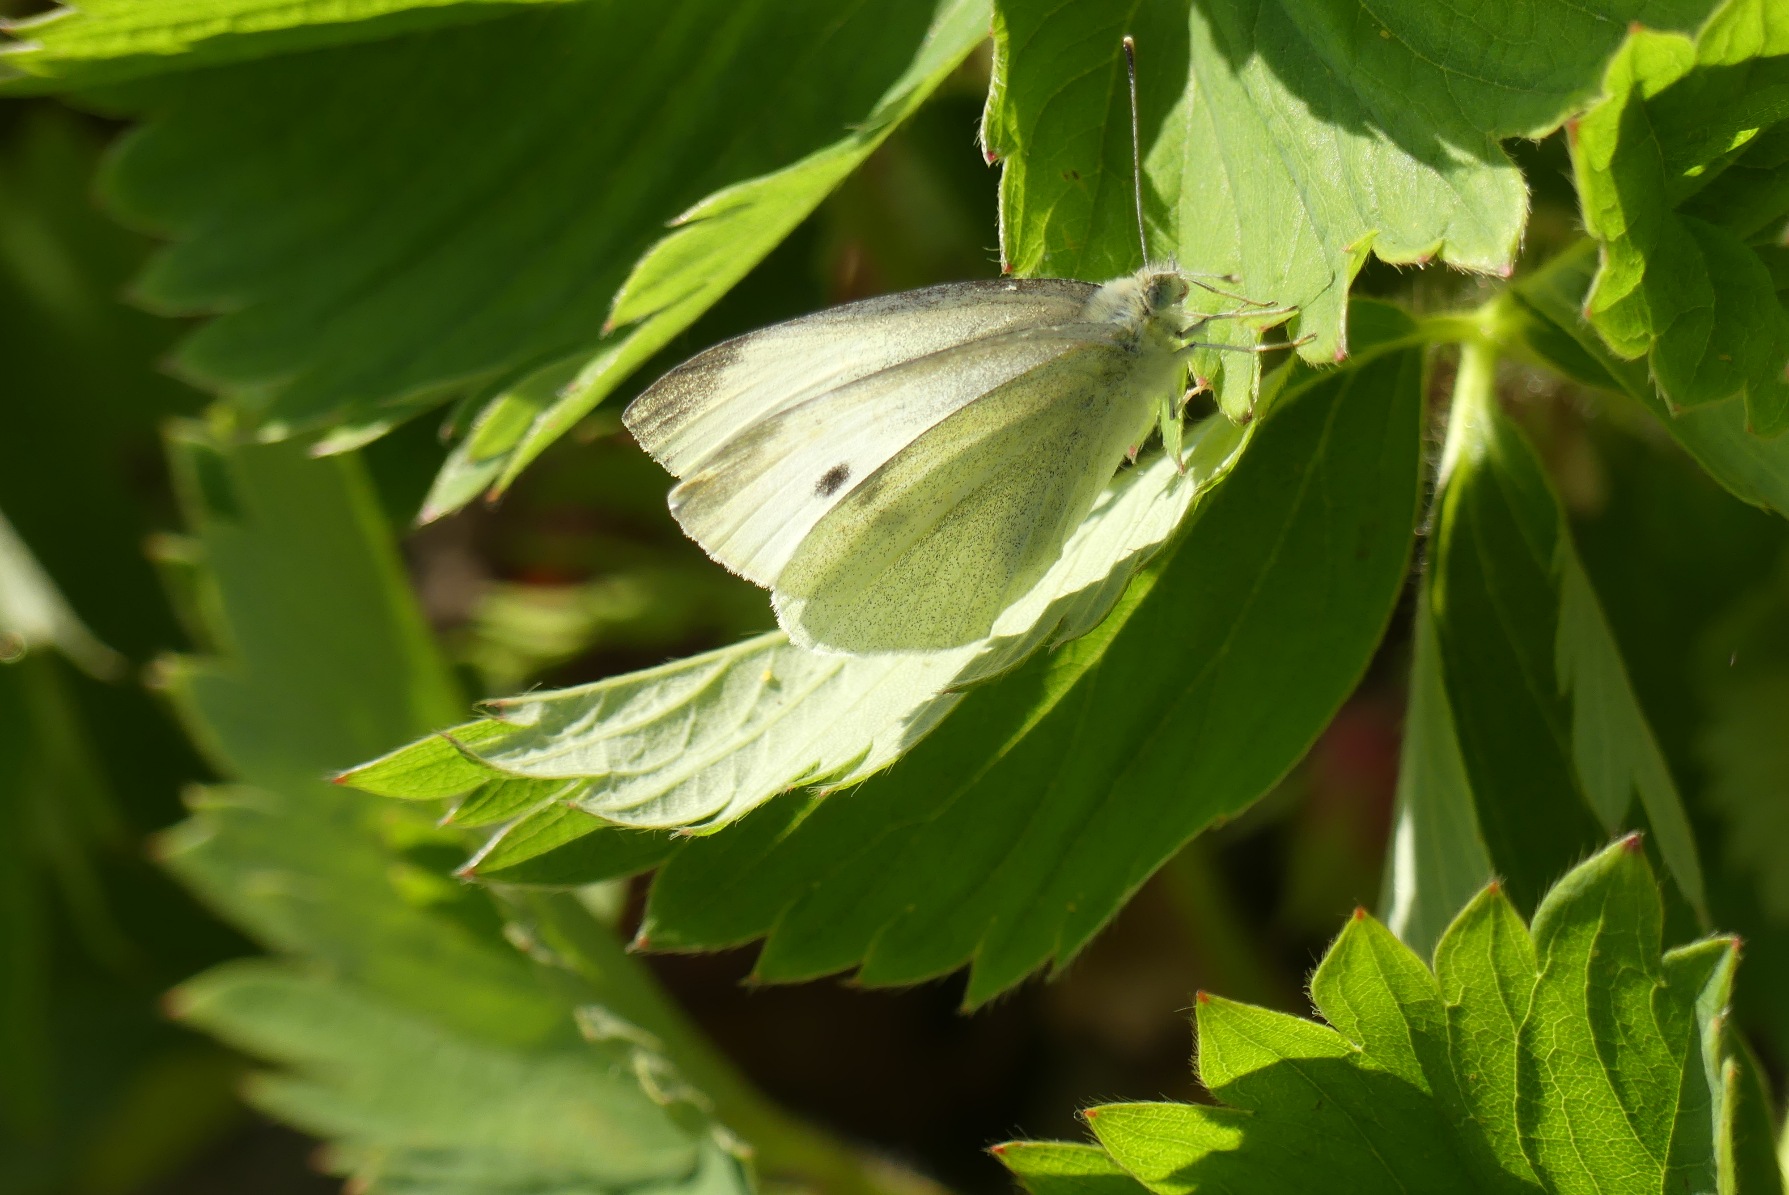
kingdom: Animalia
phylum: Arthropoda
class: Insecta
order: Lepidoptera
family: Pieridae
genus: Pieris
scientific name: Pieris rapae
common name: Lille kålsommerfugl
